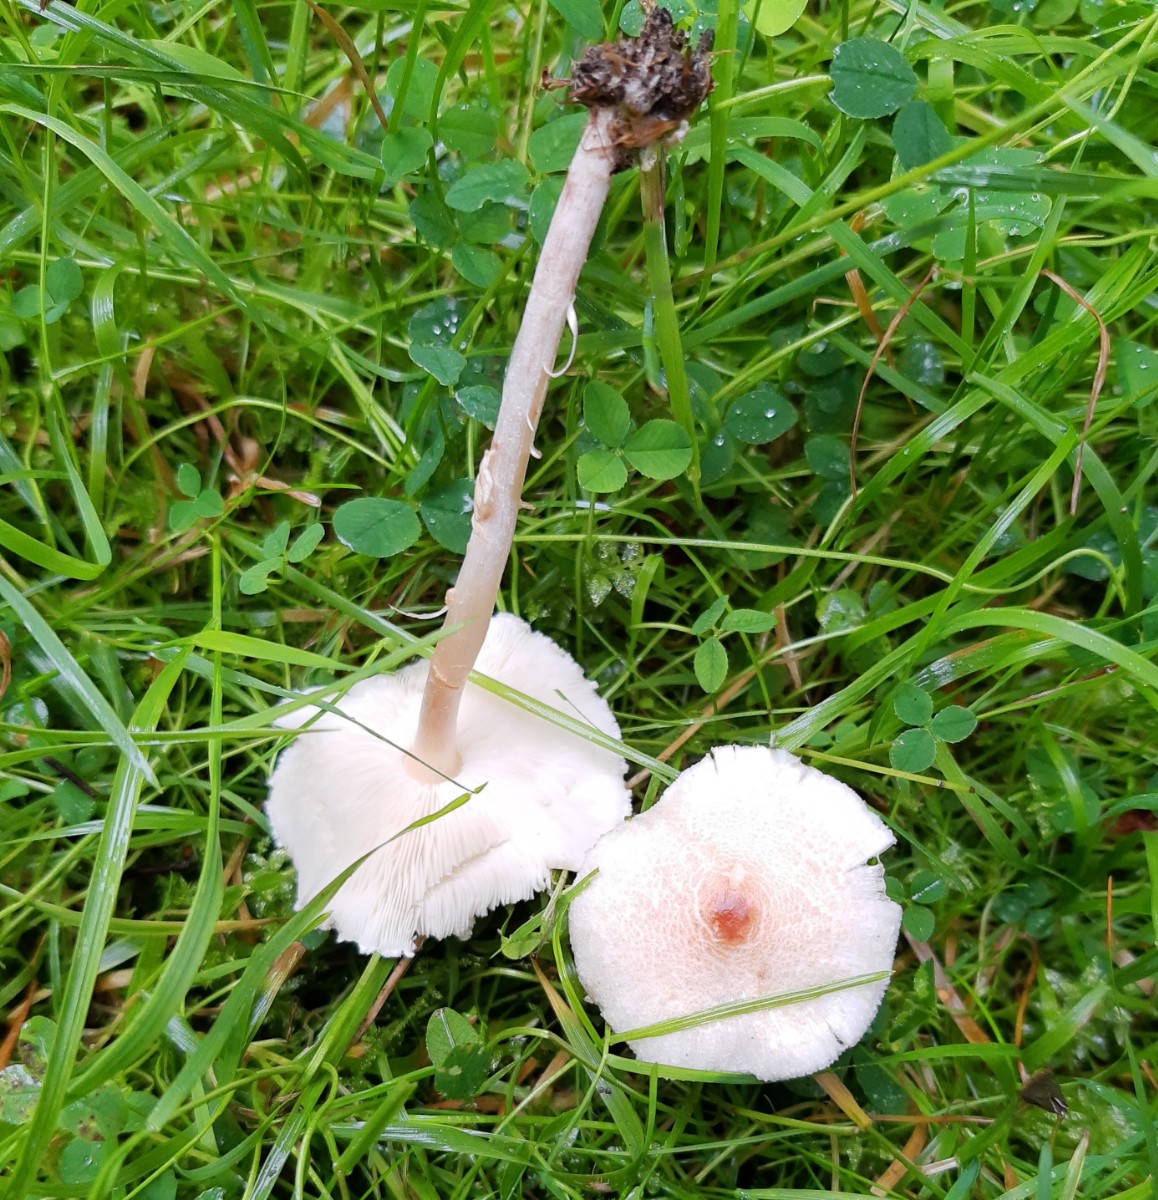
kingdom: Fungi
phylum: Basidiomycota
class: Agaricomycetes
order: Agaricales
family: Agaricaceae
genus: Lepiota
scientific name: Lepiota cristata
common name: stinkende parasolhat
